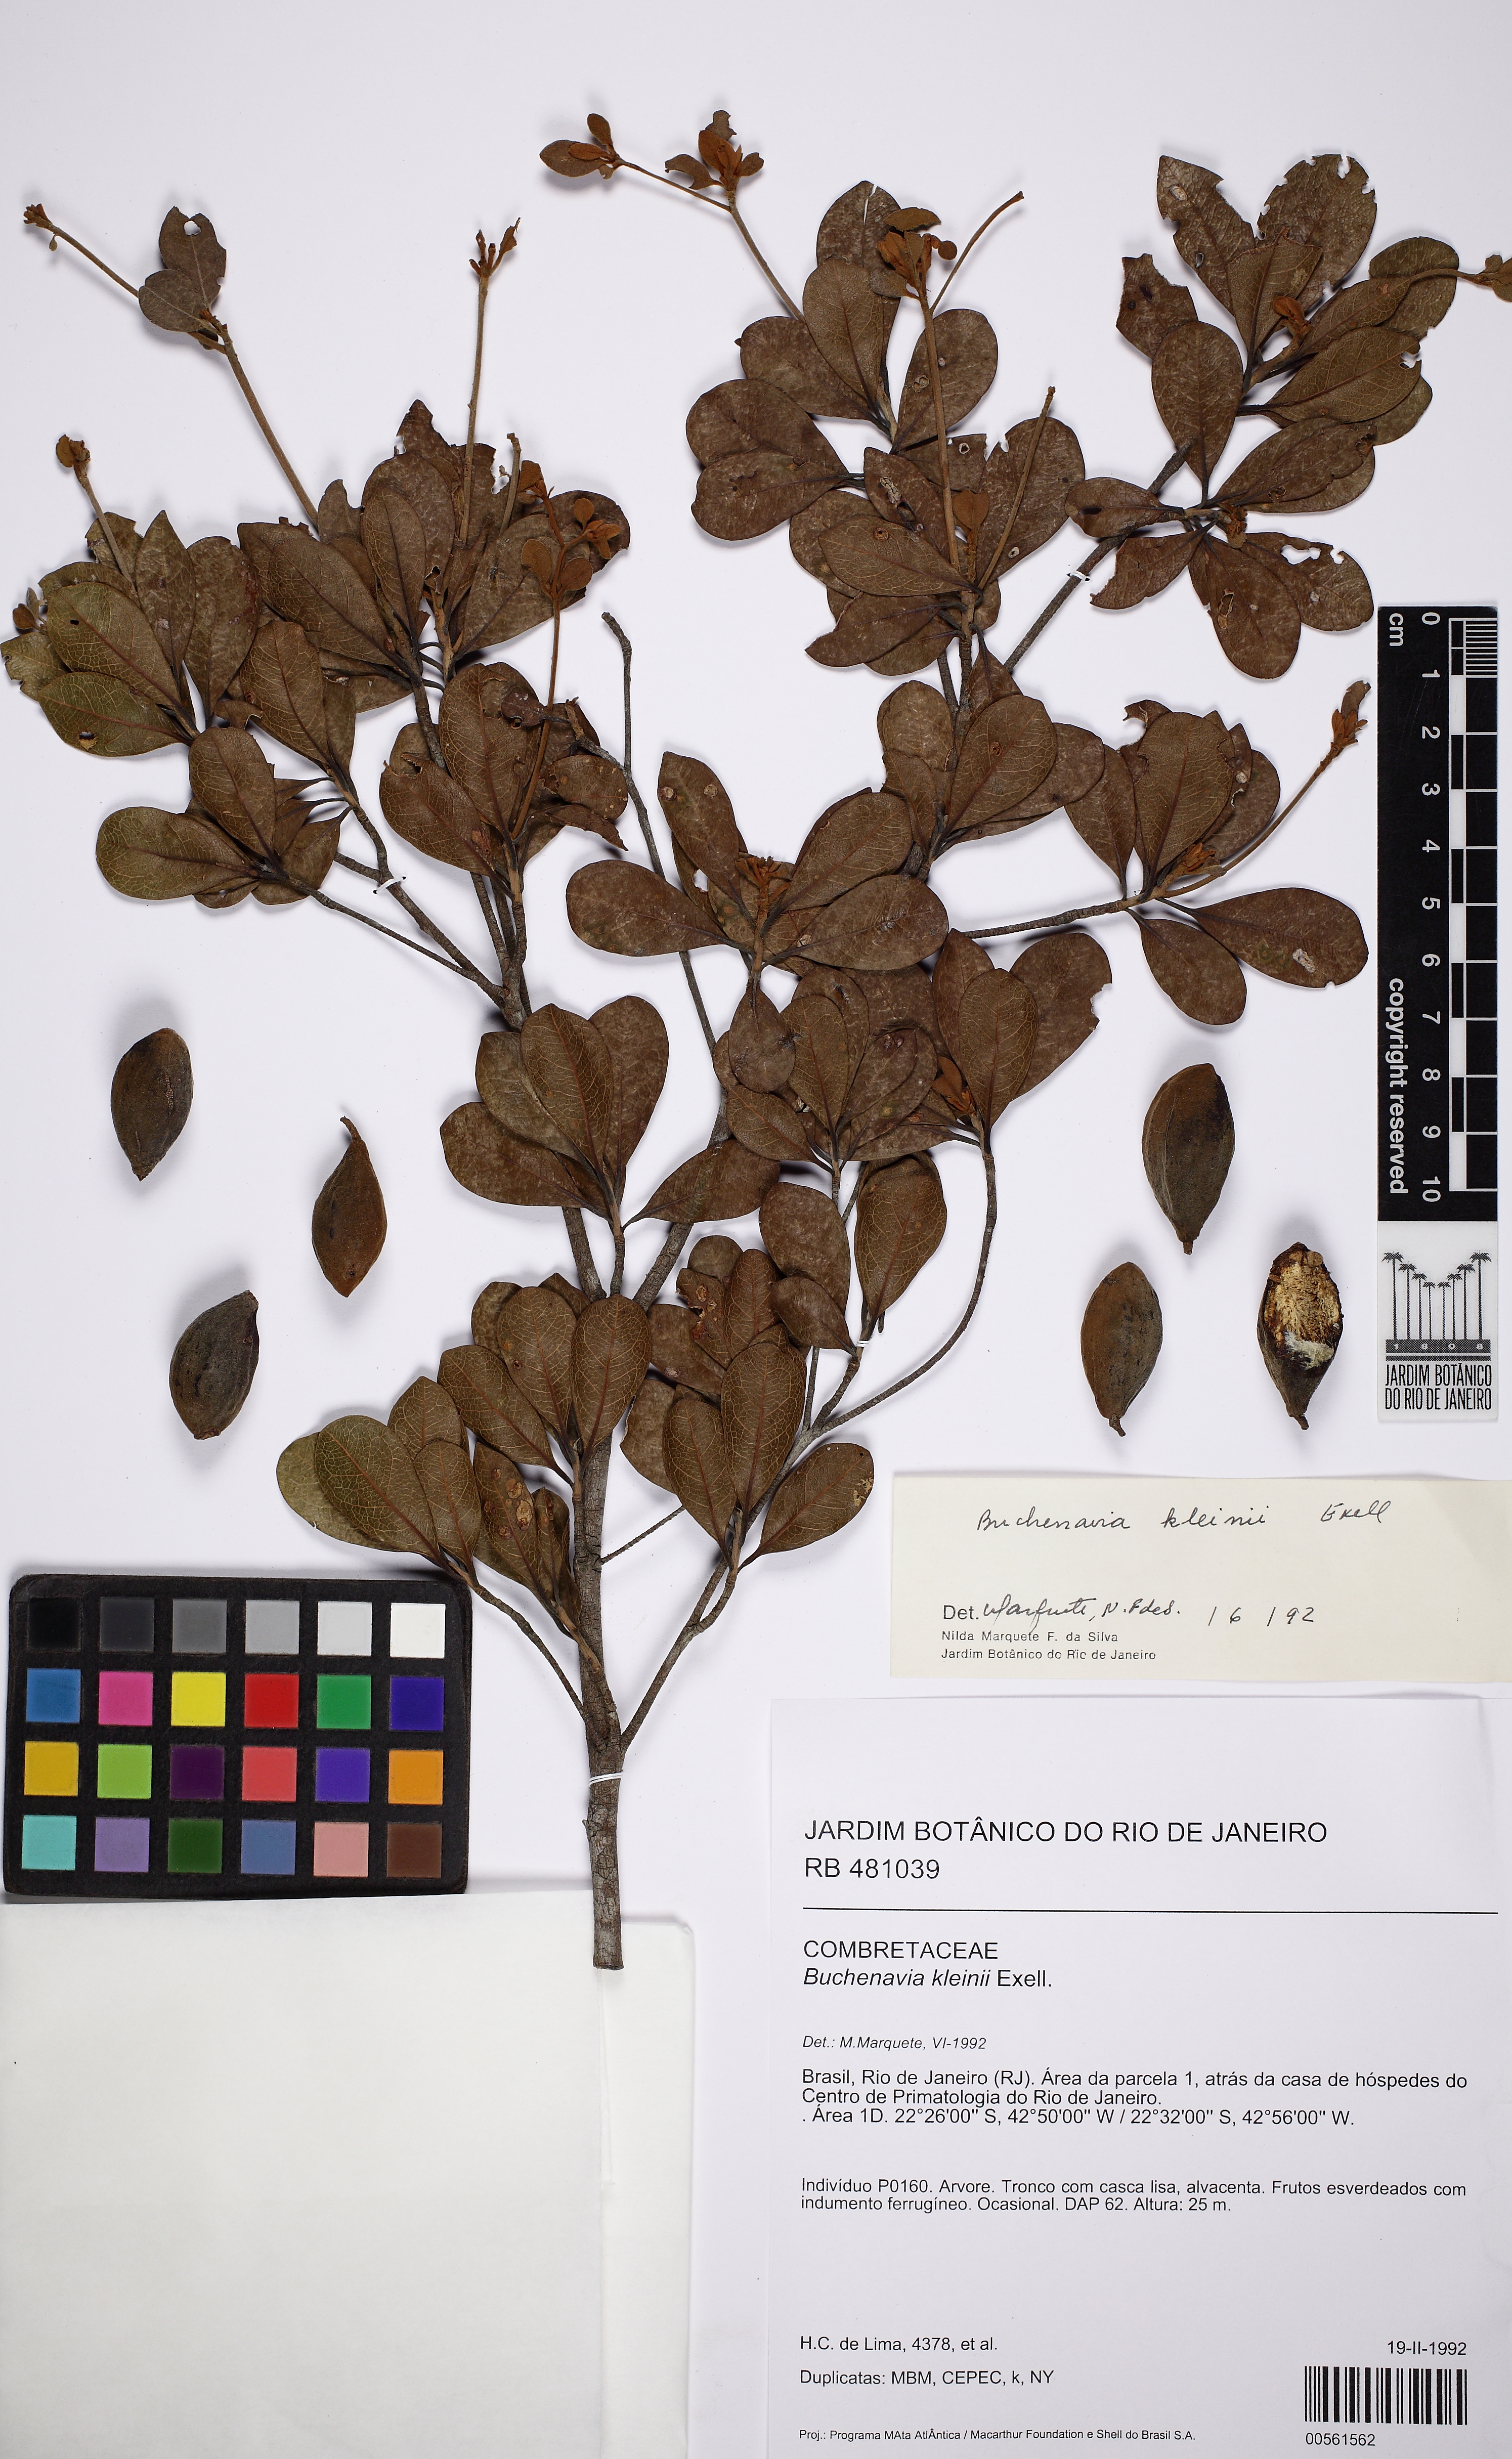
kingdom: Plantae
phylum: Tracheophyta
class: Magnoliopsida
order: Myrtales
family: Combretaceae
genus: Terminalia
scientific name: Terminalia kleinii
